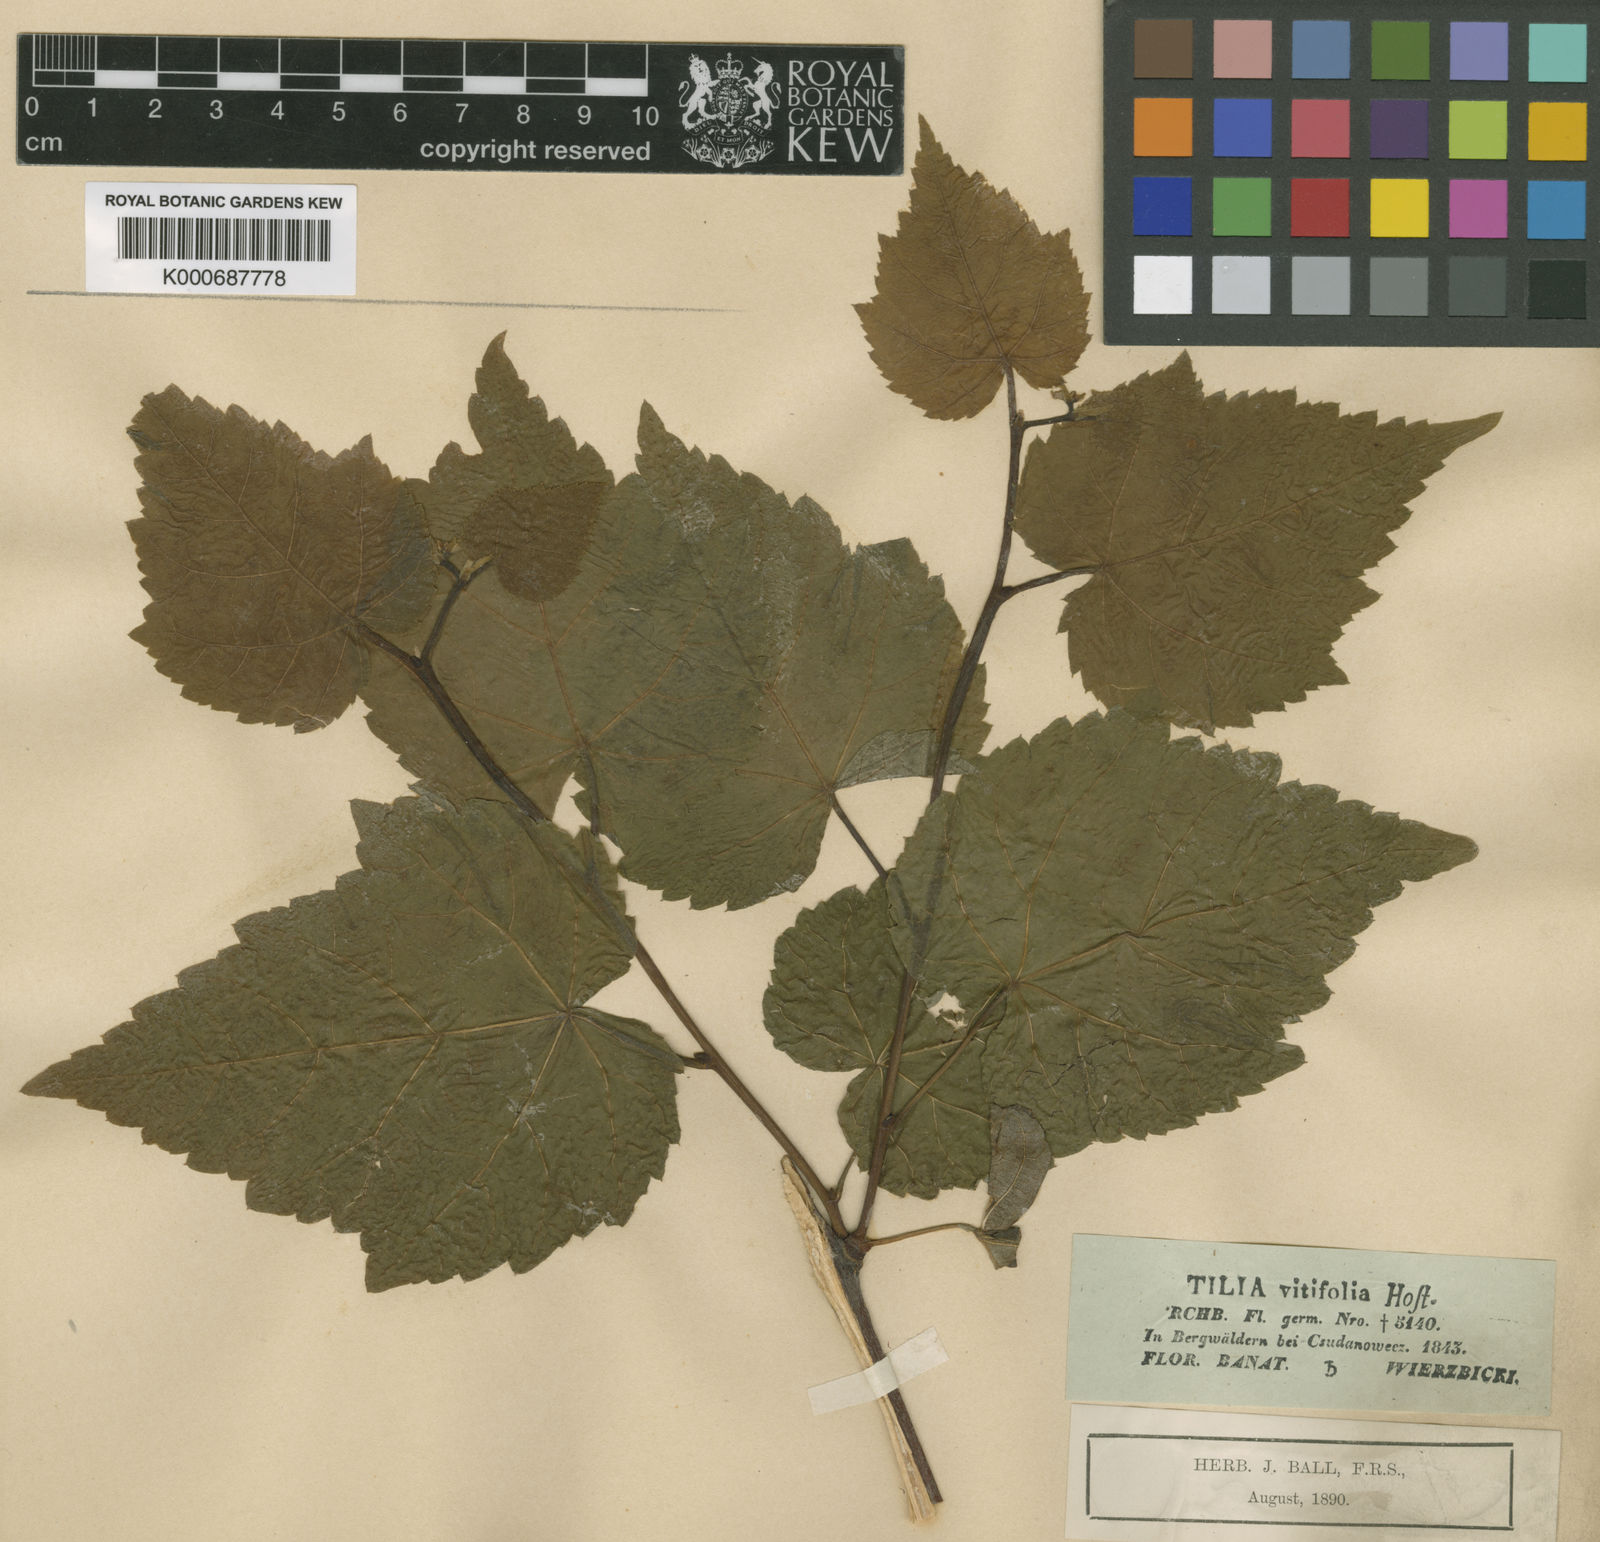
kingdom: Plantae
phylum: Tracheophyta
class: Magnoliopsida
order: Malvales
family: Malvaceae
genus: Tilia
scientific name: Tilia platyphyllos
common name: Large-leaved lime
